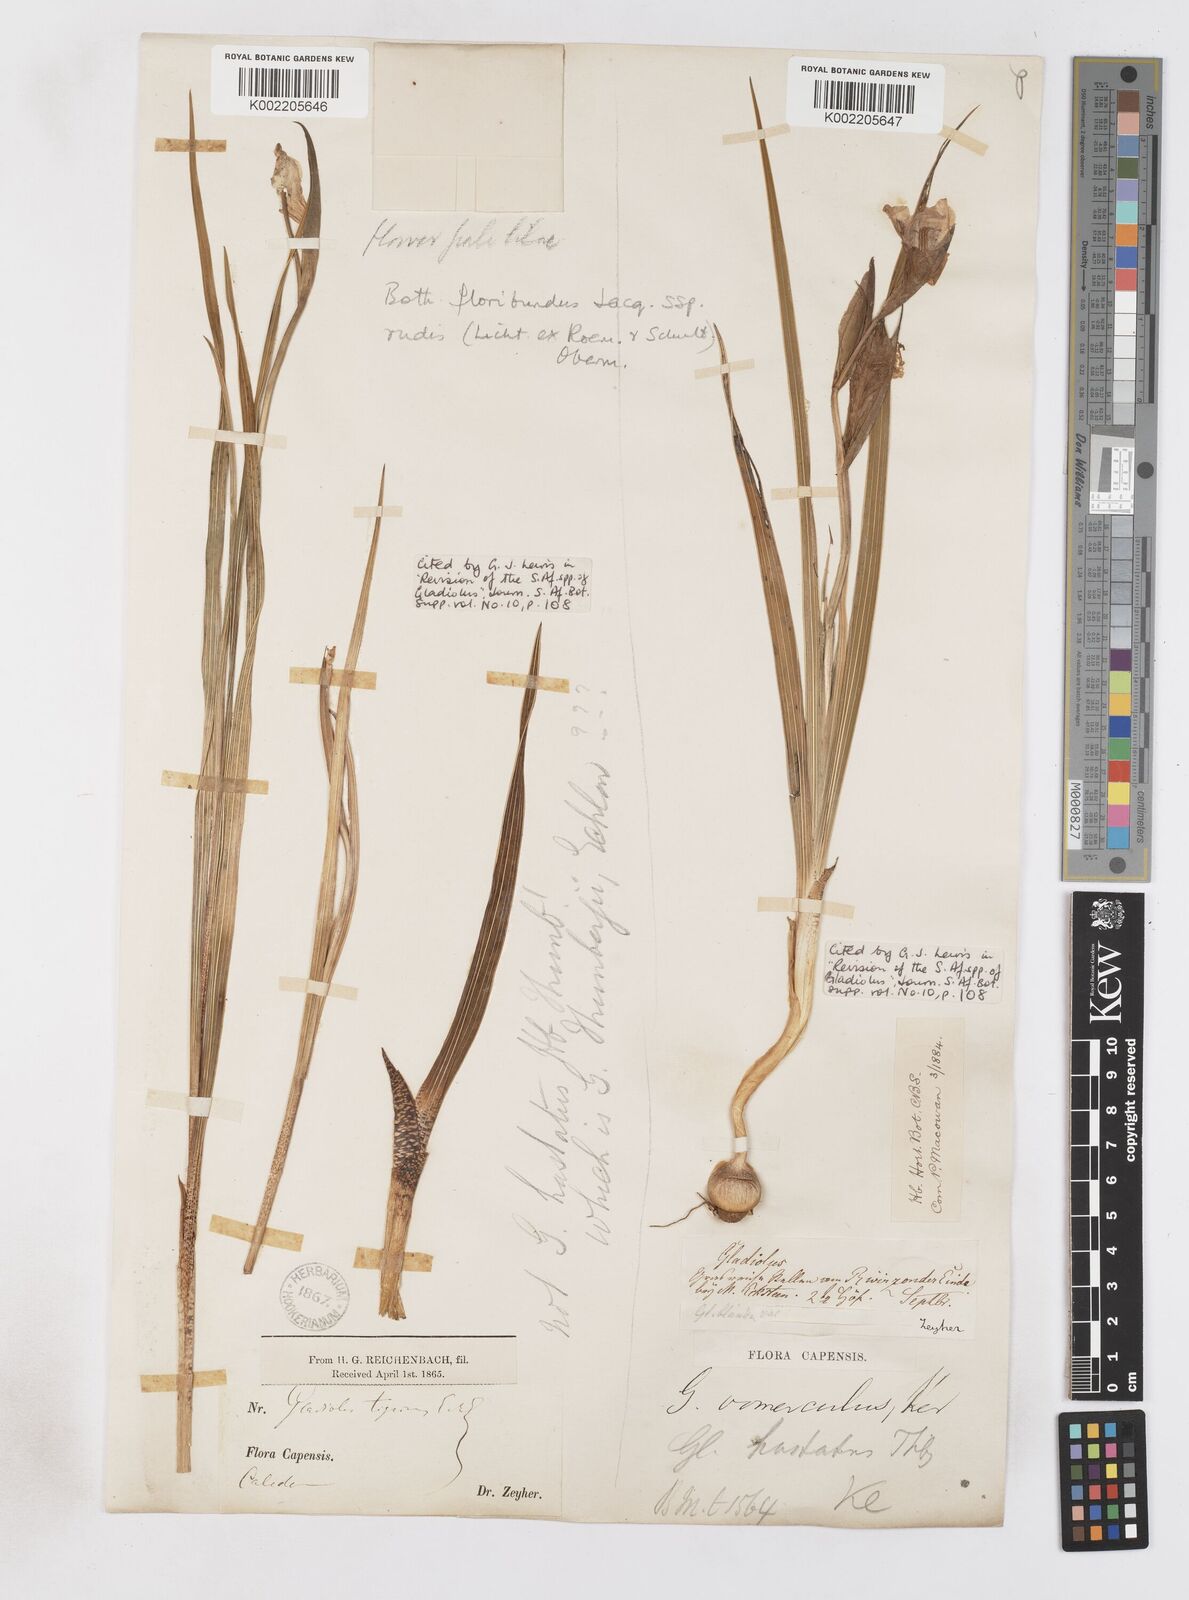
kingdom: Plantae
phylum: Tracheophyta
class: Liliopsida
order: Asparagales
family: Iridaceae
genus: Gladiolus
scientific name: Gladiolus rudis
